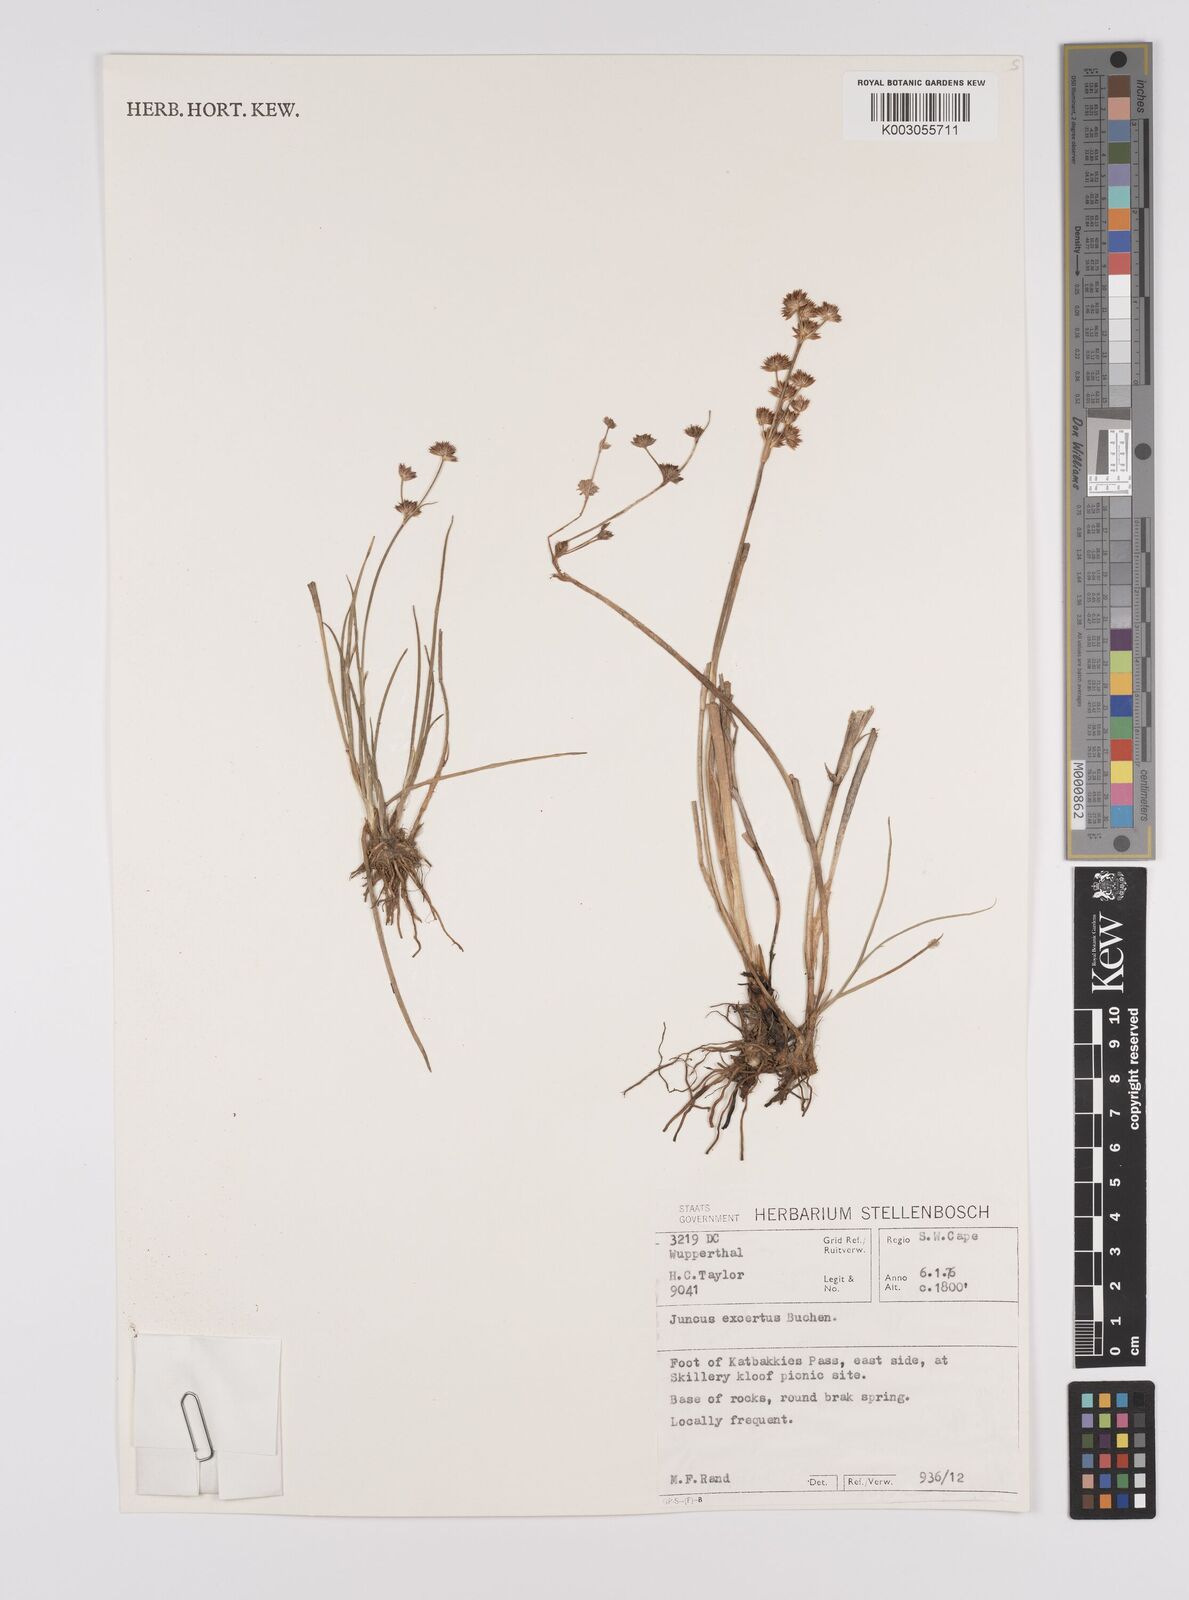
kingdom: Plantae
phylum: Tracheophyta
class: Liliopsida
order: Poales
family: Juncaceae
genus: Juncus
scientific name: Juncus oxycarpus
